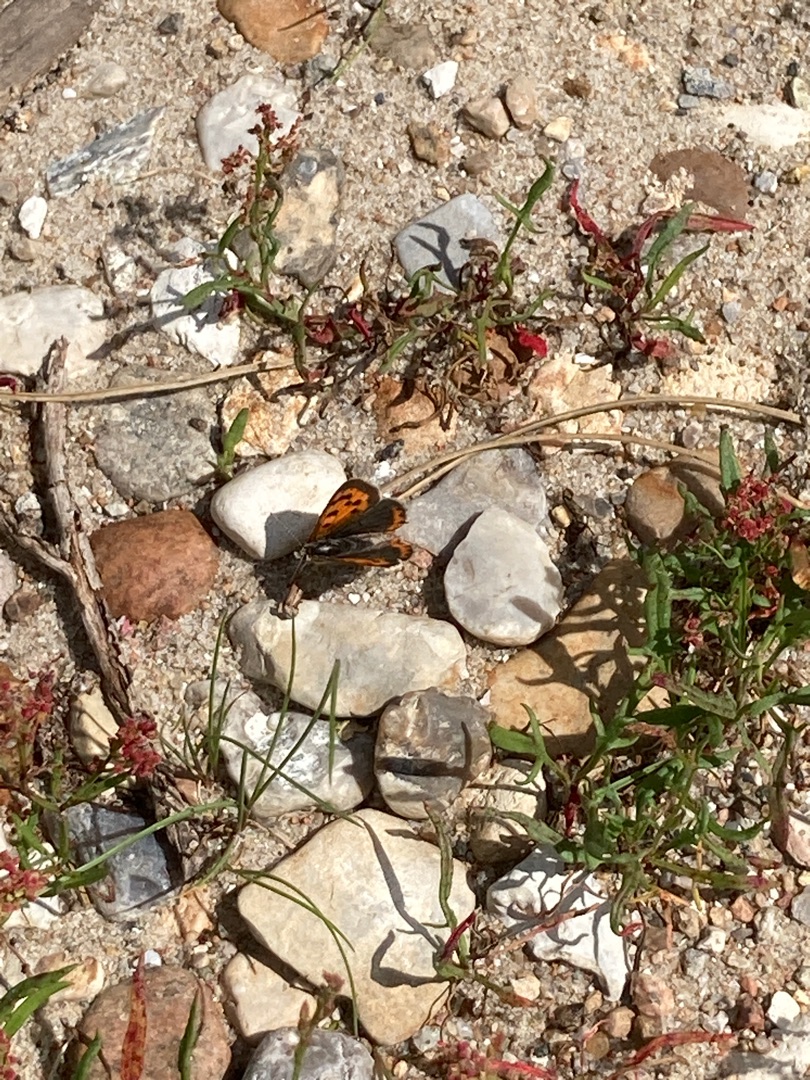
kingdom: Animalia
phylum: Arthropoda
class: Insecta
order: Lepidoptera
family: Lycaenidae
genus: Lycaena
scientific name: Lycaena phlaeas
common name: Lille ildfugl
